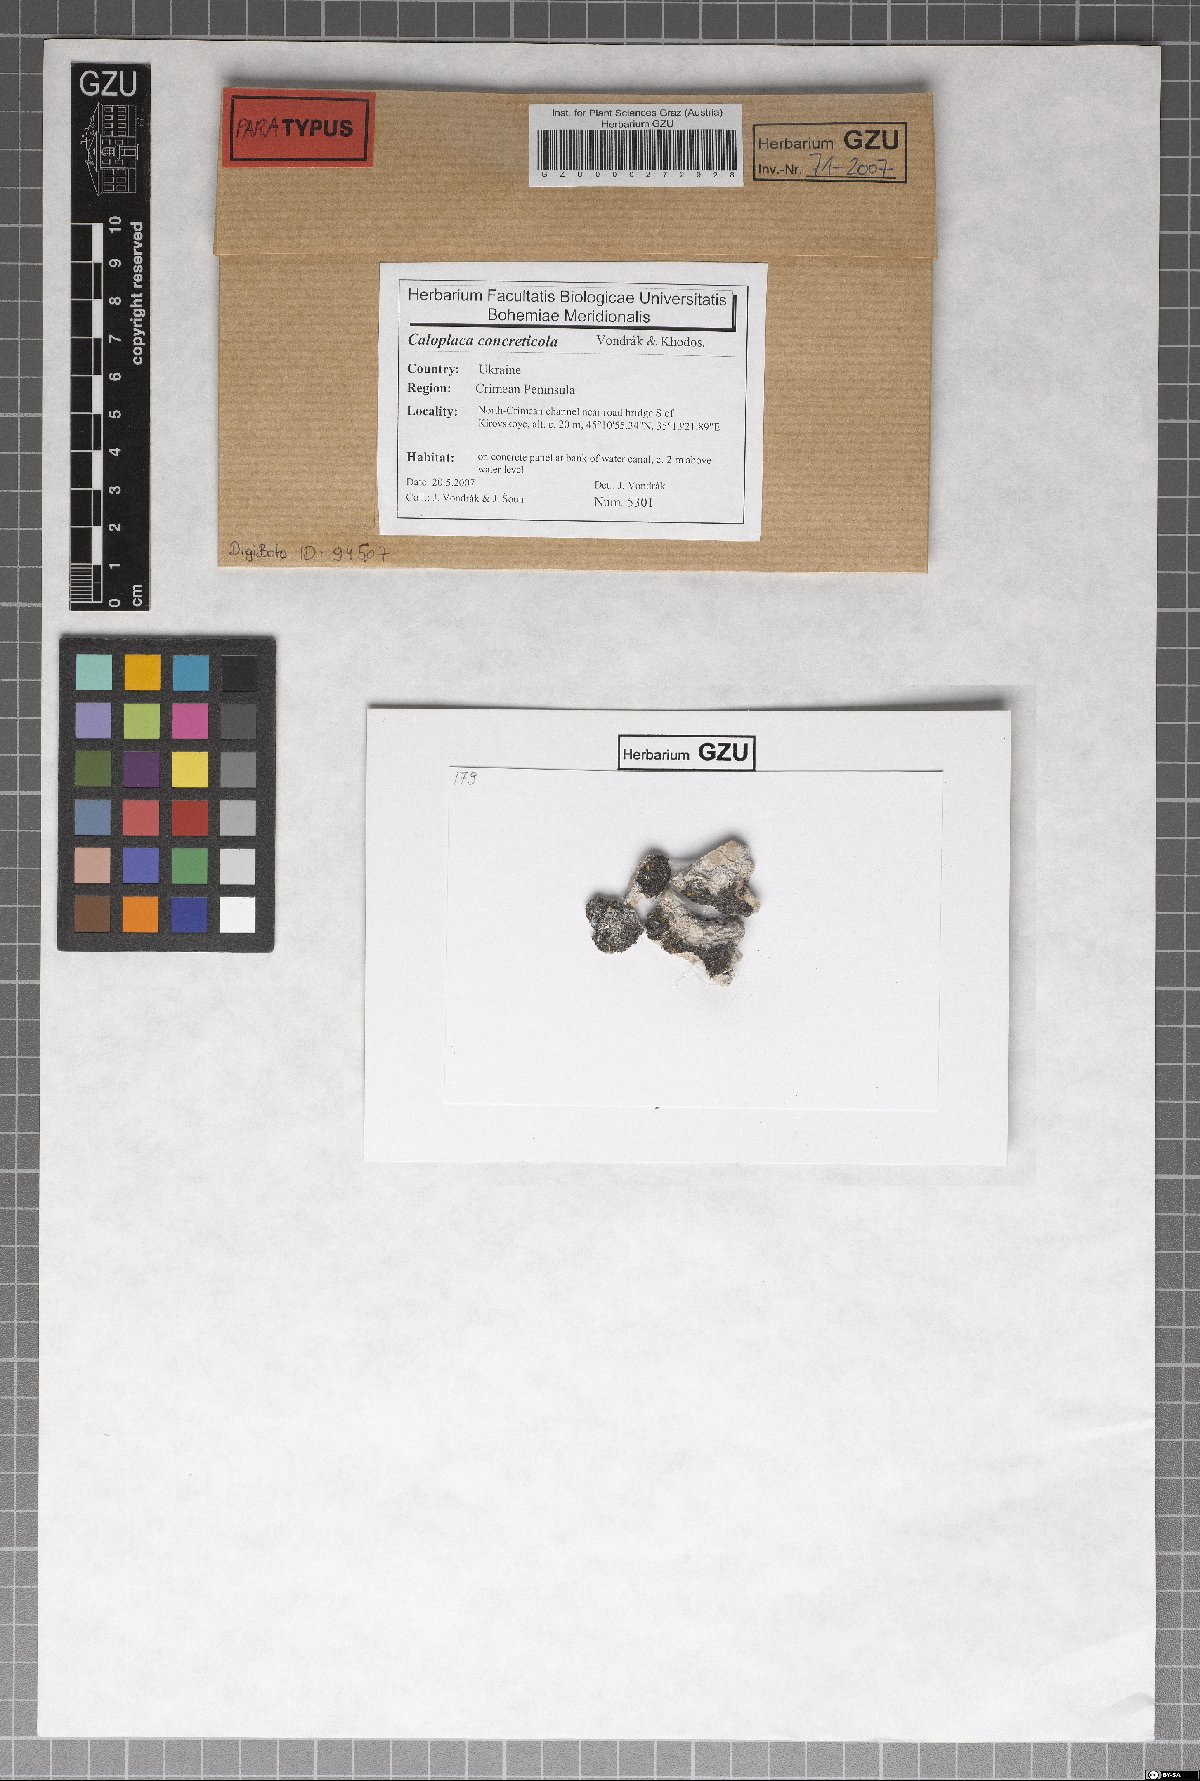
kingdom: Fungi
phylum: Ascomycota
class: Lecanoromycetes
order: Teloschistales
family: Teloschistaceae
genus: Pyrenodesmia
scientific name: Pyrenodesmia concreticola
